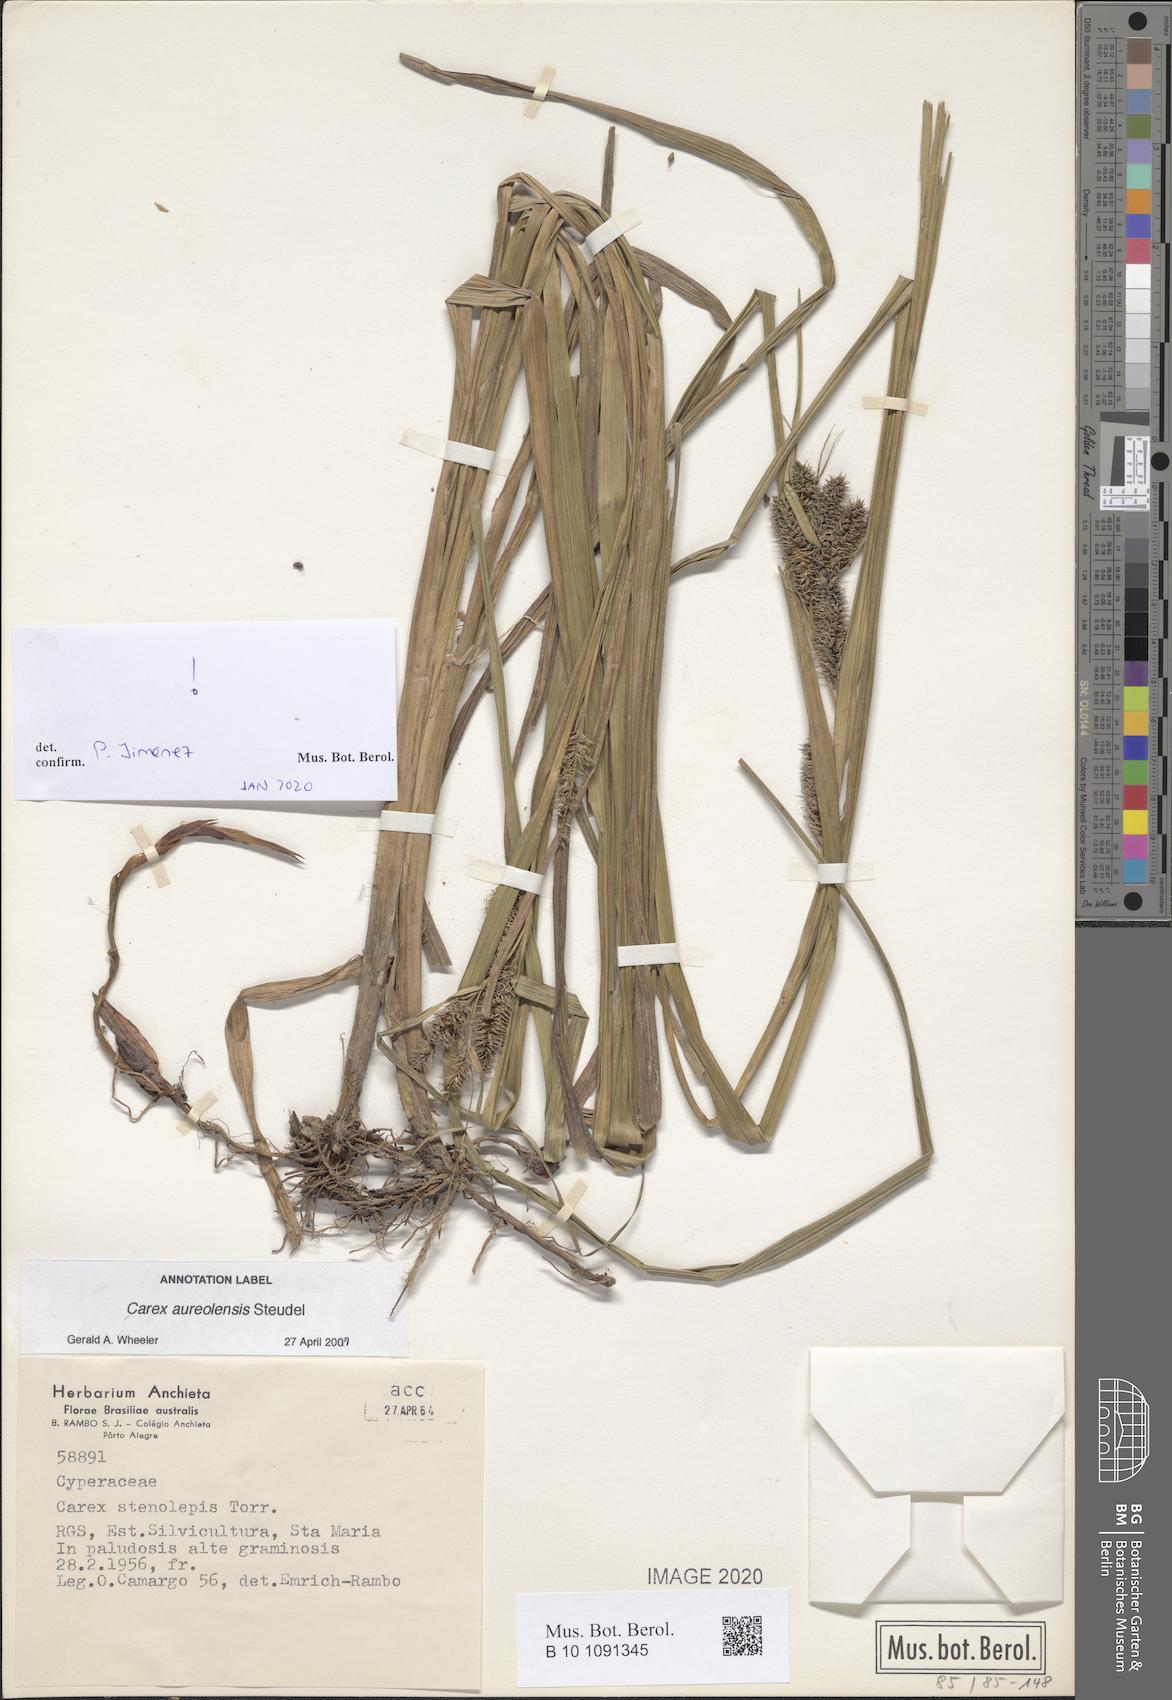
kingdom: Plantae
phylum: Tracheophyta
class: Liliopsida
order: Poales
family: Cyperaceae
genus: Carex
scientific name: Carex aureolensis
